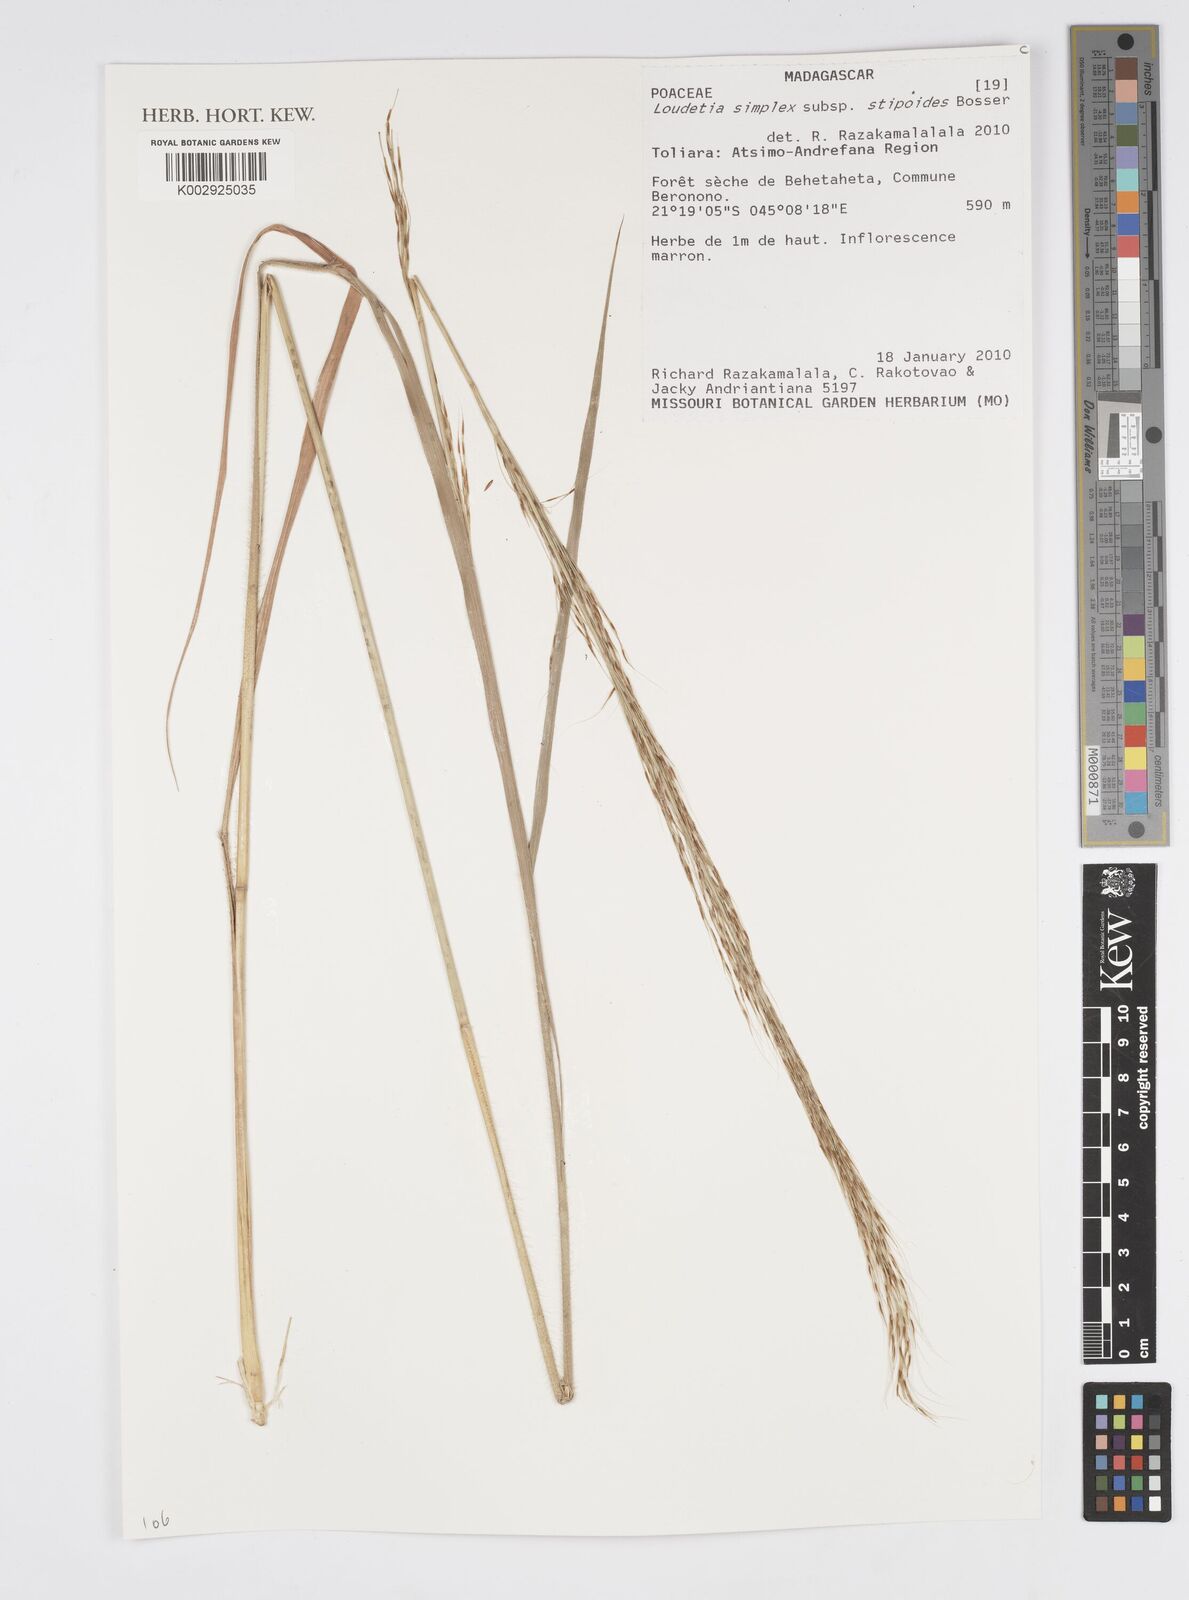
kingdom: Plantae
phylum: Tracheophyta
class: Liliopsida
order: Poales
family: Poaceae
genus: Loudetia
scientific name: Loudetia simplex
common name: Common russet grass
